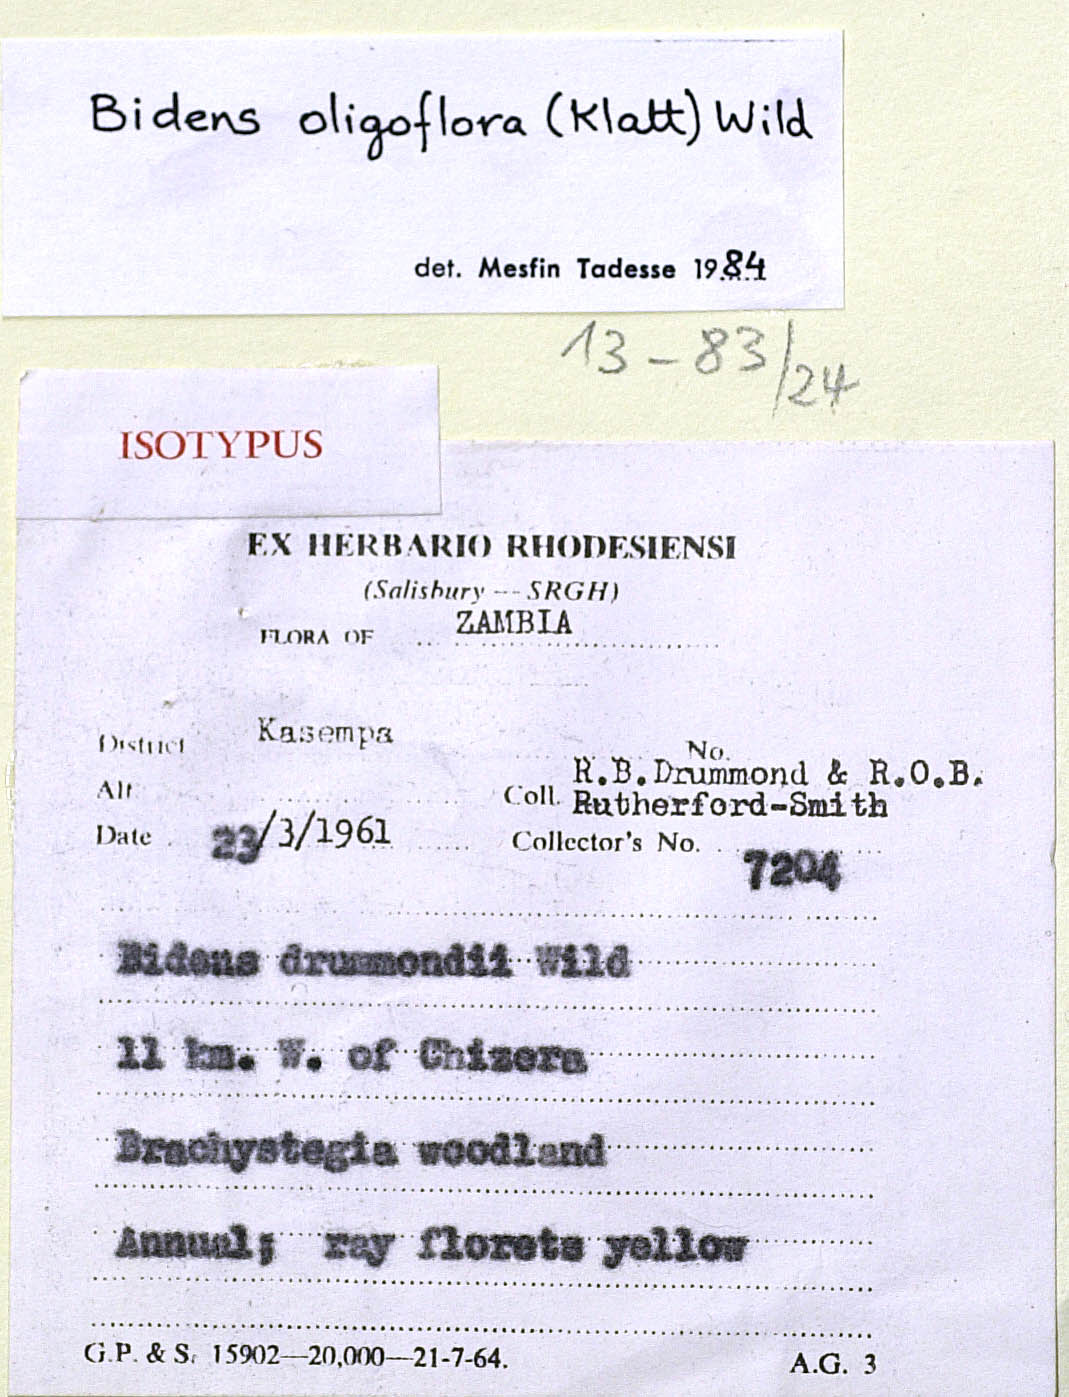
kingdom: Plantae
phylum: Tracheophyta
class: Magnoliopsida
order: Asterales
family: Asteraceae
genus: Bidens
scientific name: Bidens oligoflora
